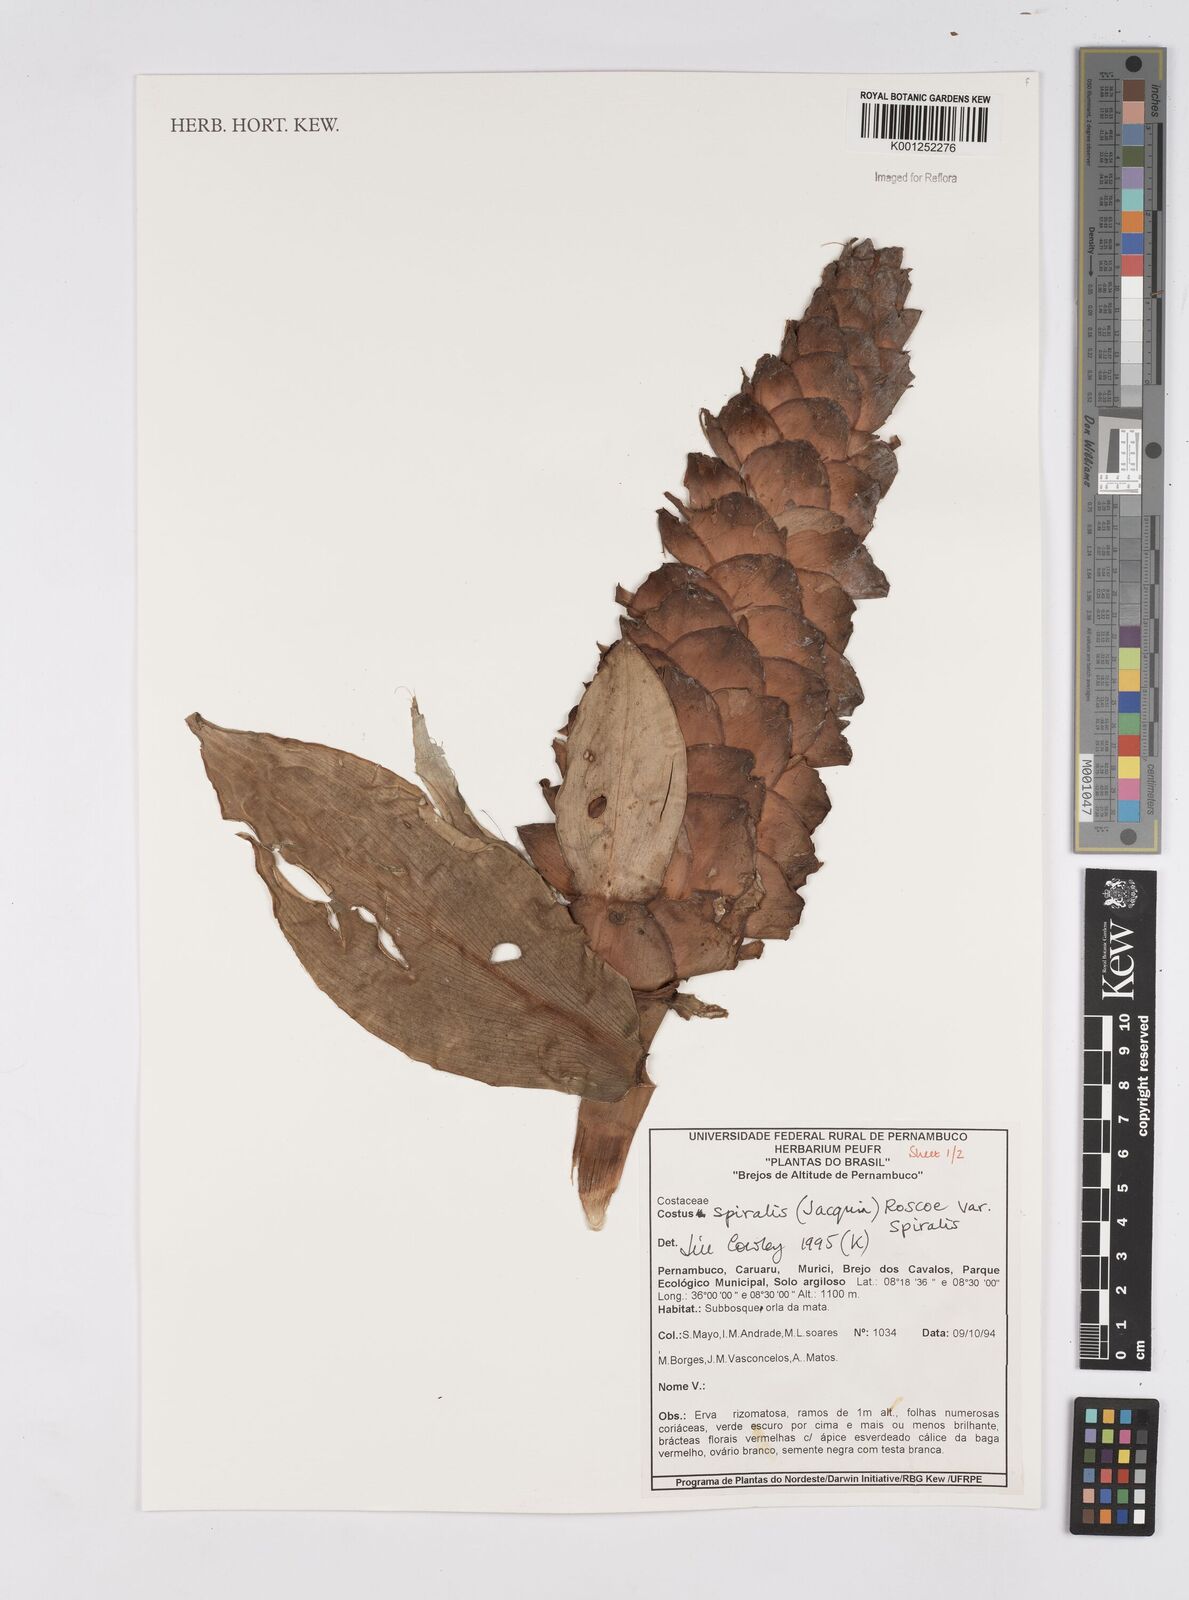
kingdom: Plantae
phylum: Tracheophyta
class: Liliopsida
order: Zingiberales
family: Costaceae
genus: Costus
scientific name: Costus spiralis
